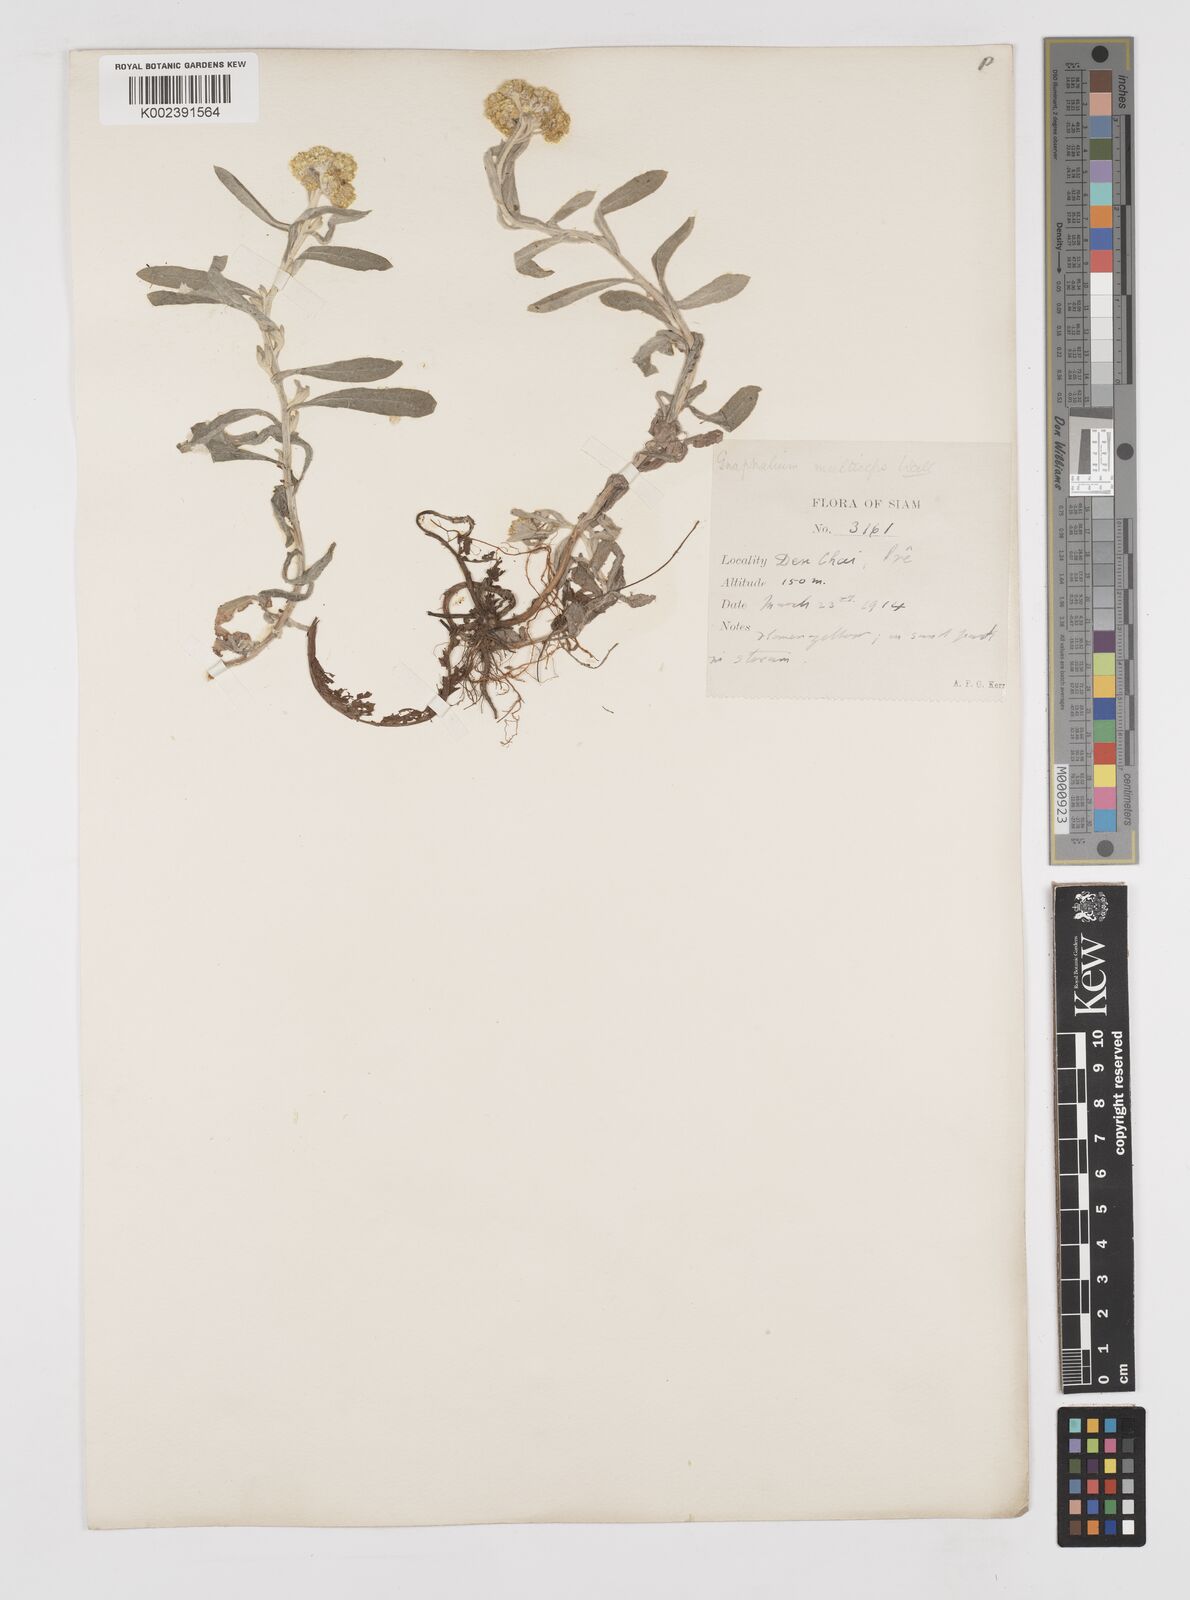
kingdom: Plantae
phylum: Tracheophyta
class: Magnoliopsida
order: Asterales
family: Asteraceae
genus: Pseudognaphalium
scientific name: Pseudognaphalium affine
